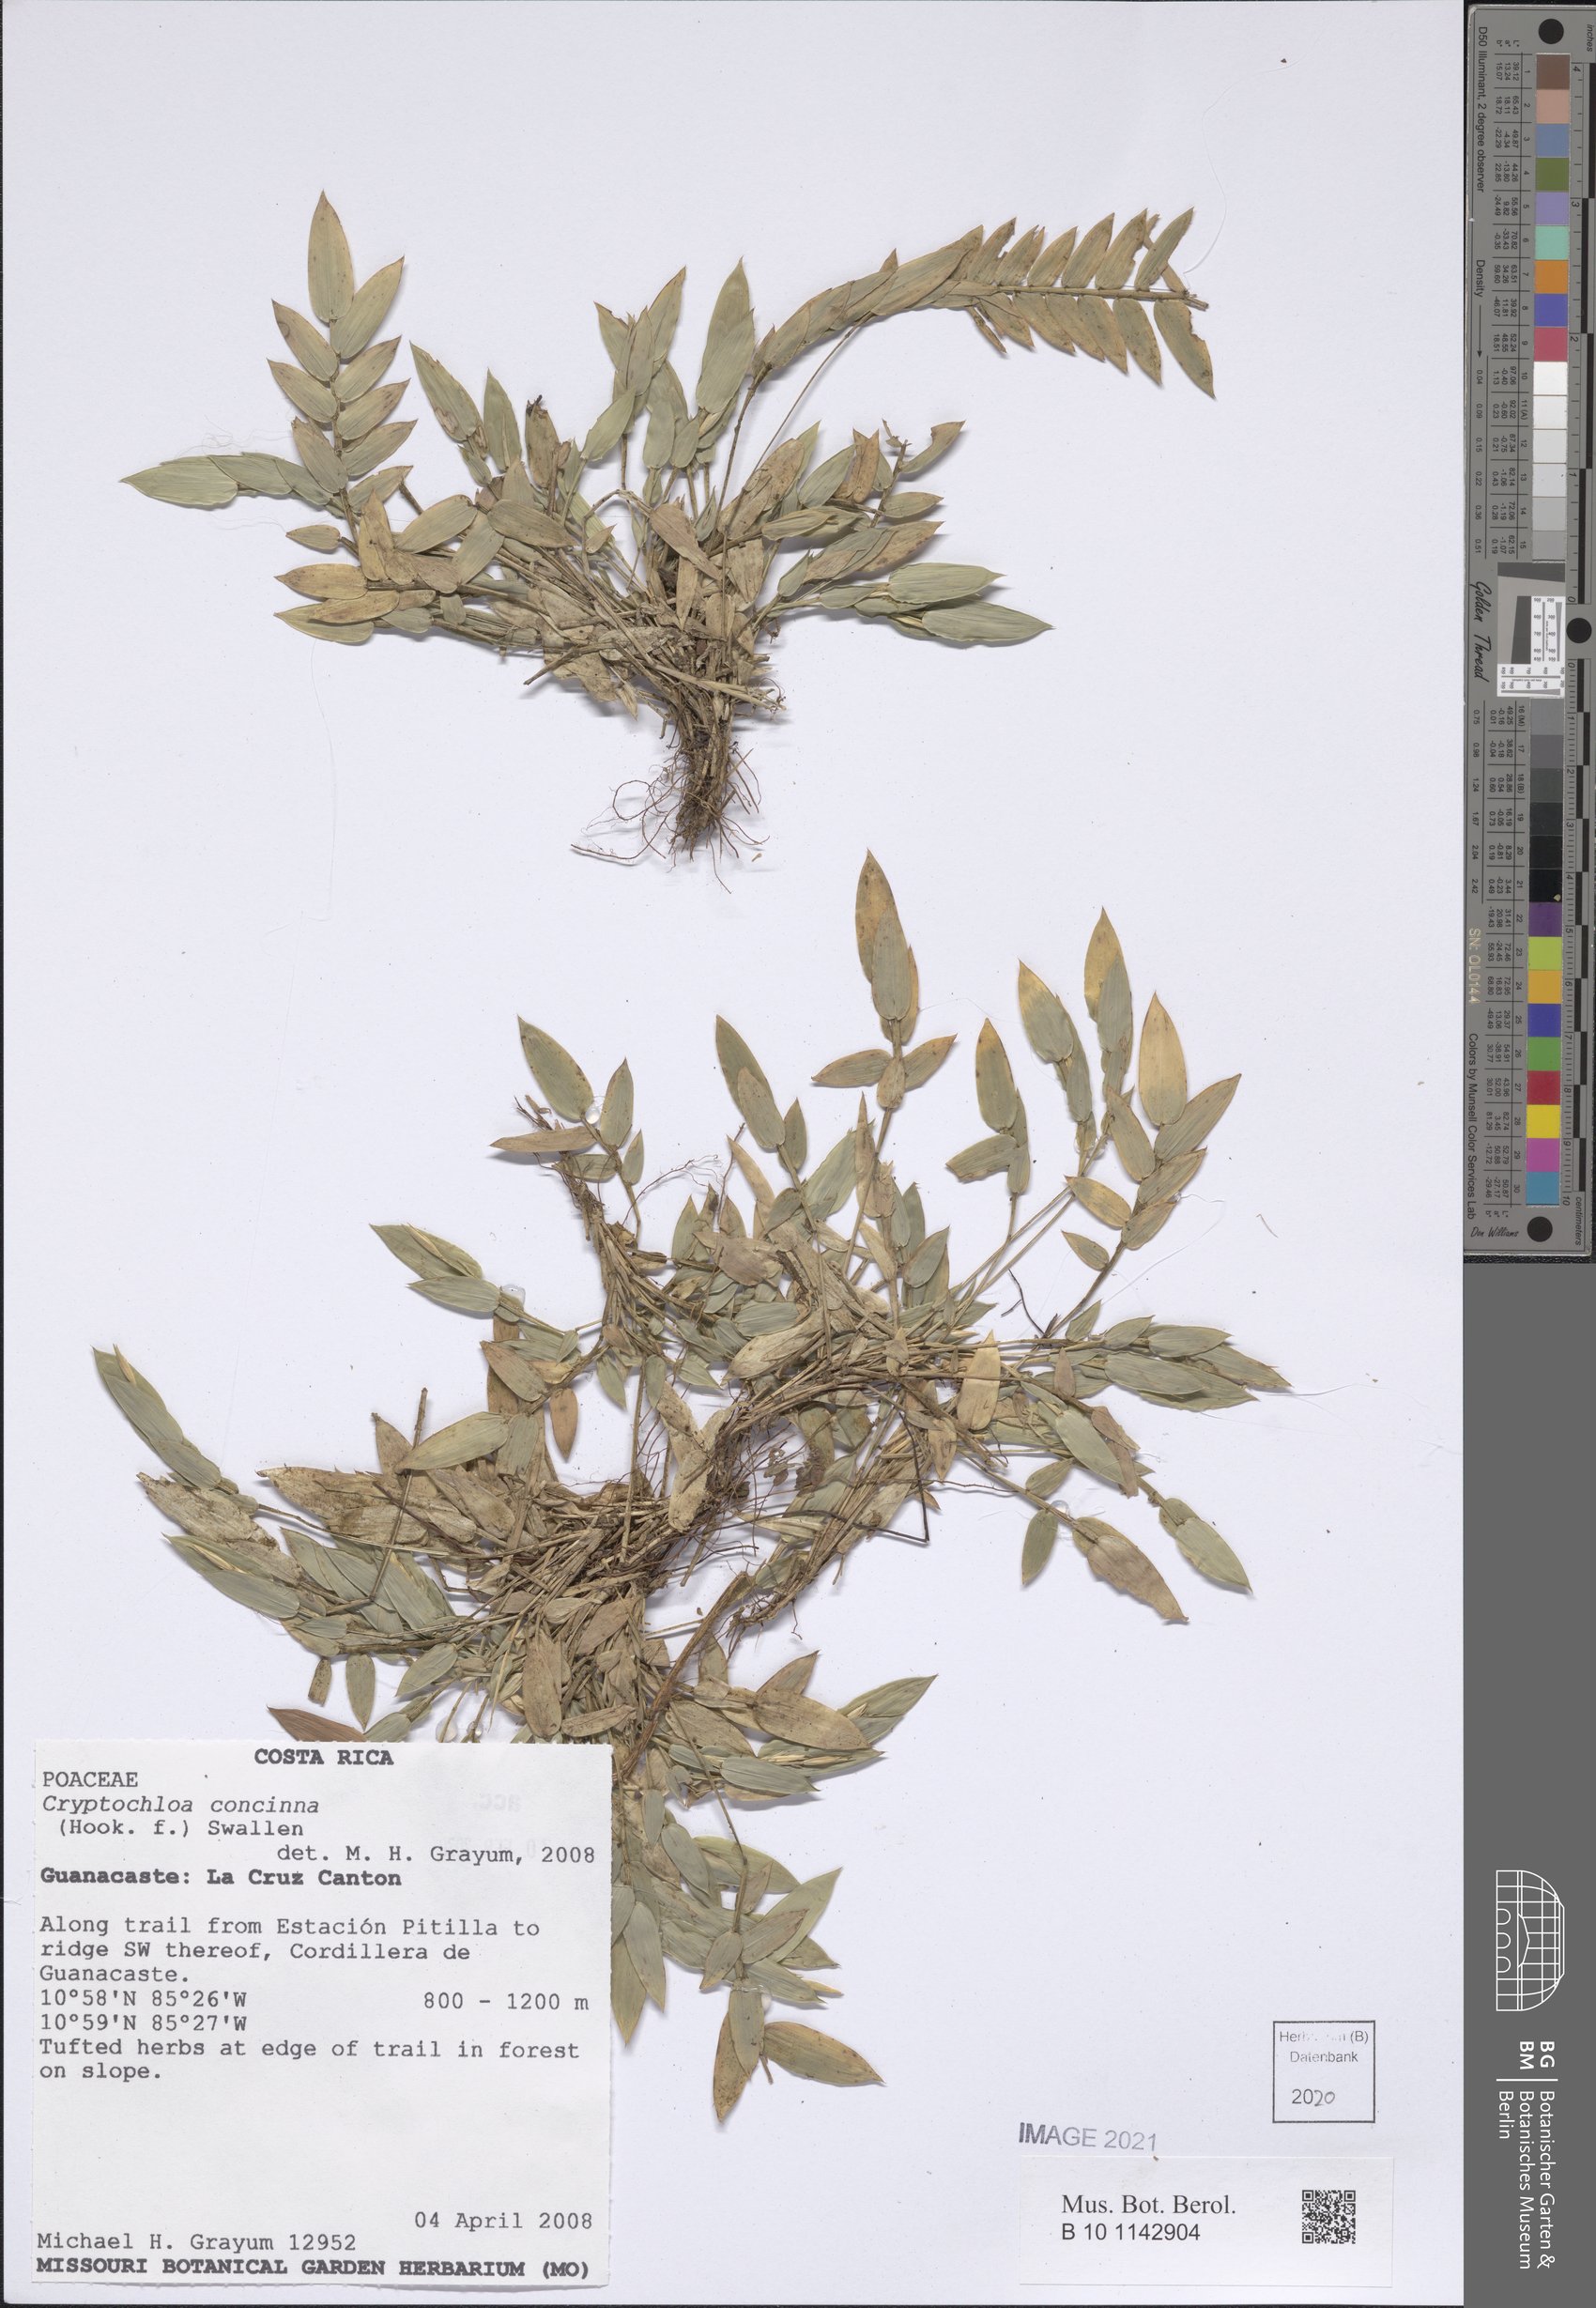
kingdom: Plantae
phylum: Tracheophyta
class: Liliopsida
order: Poales
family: Poaceae
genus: Cryptochloa
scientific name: Cryptochloa concinna
